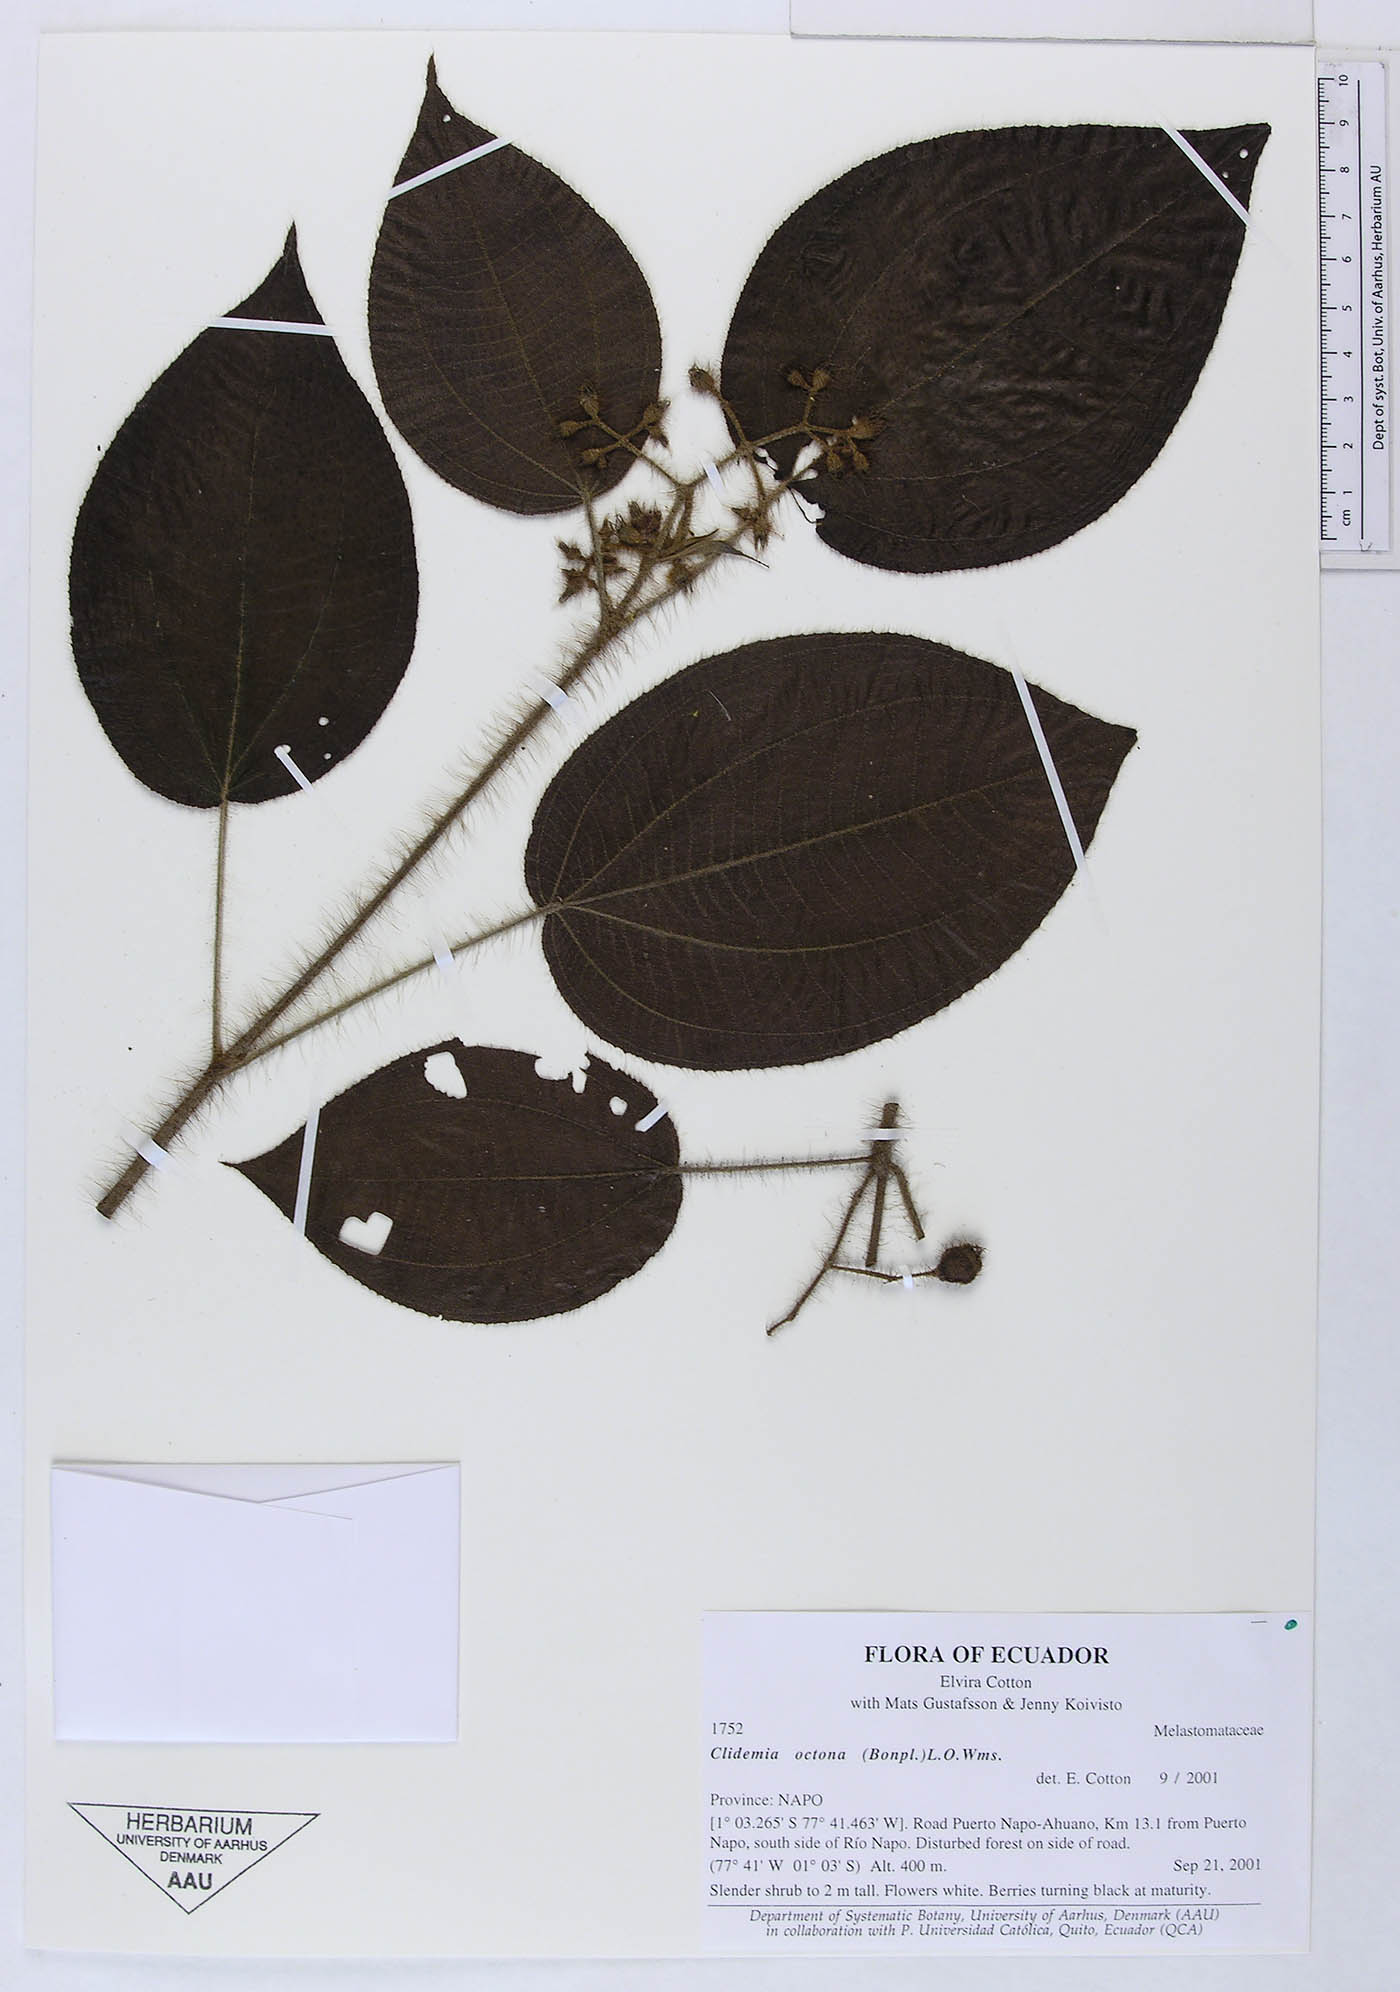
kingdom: Plantae
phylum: Tracheophyta
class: Magnoliopsida
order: Myrtales
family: Melastomataceae
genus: Miconia
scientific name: Miconia octona
